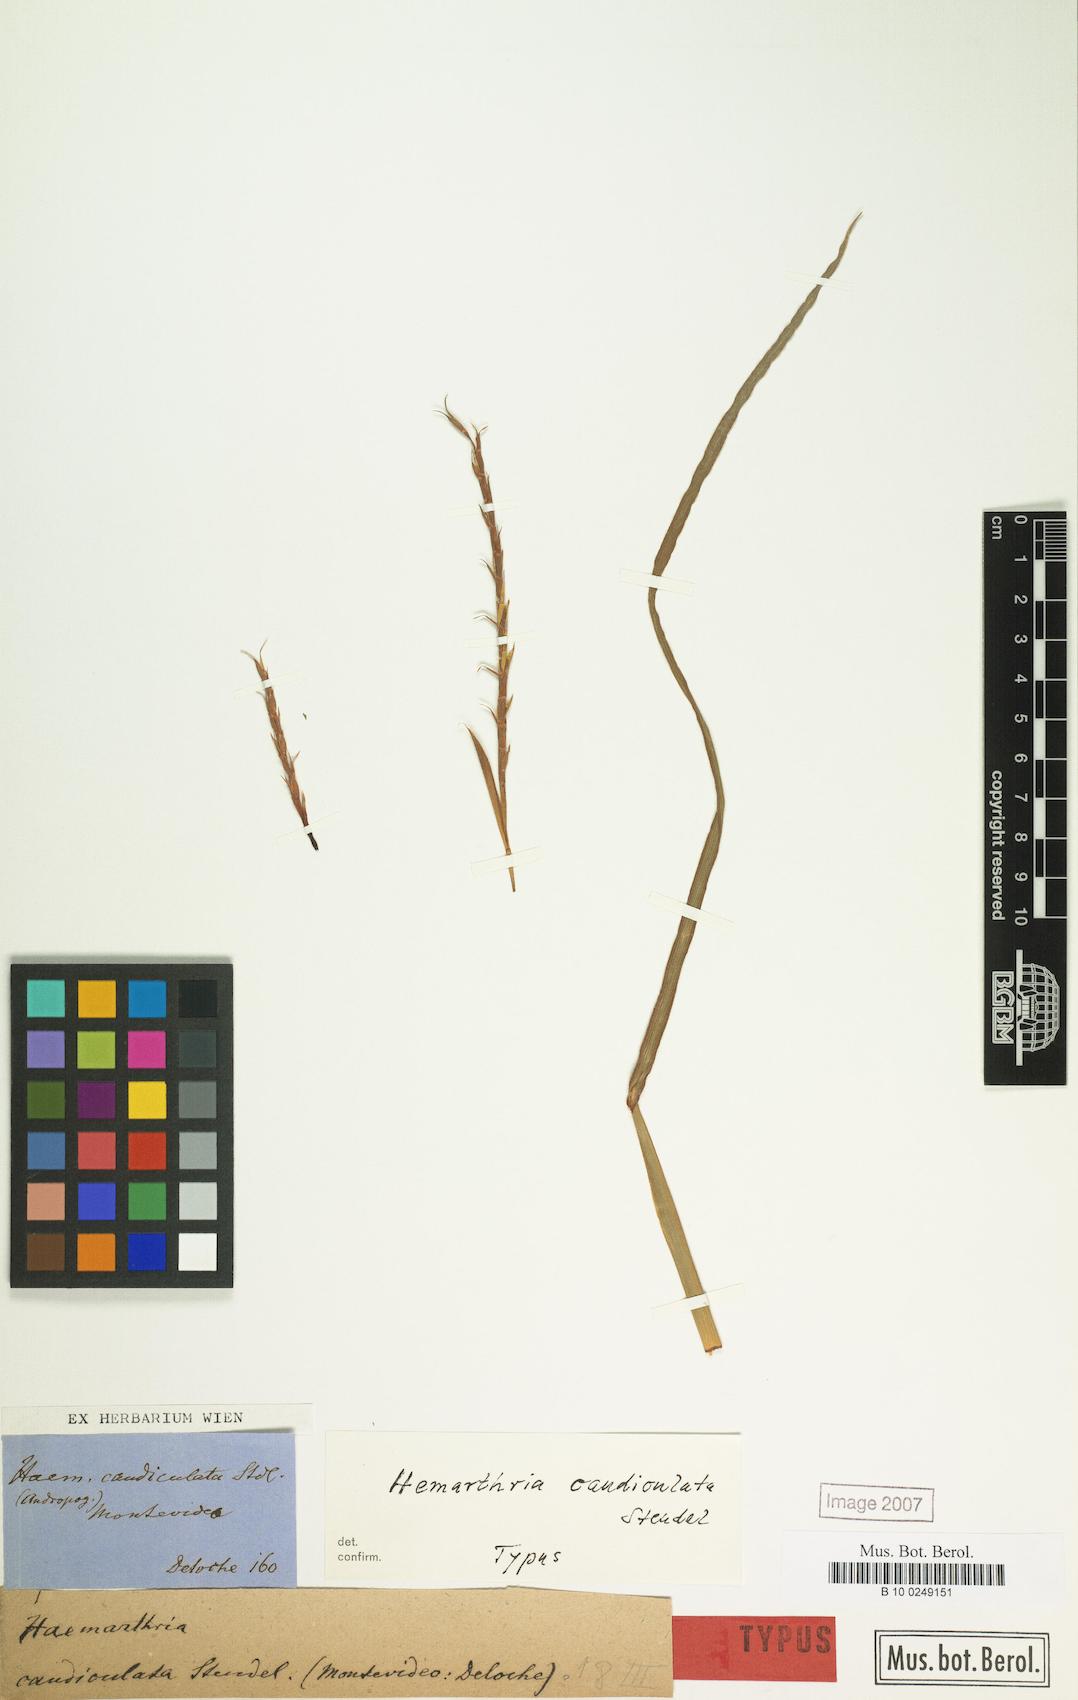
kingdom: Plantae
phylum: Tracheophyta
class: Liliopsida
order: Poales
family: Poaceae
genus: Hemarthria
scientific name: Hemarthria altissima
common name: African jointgrass
